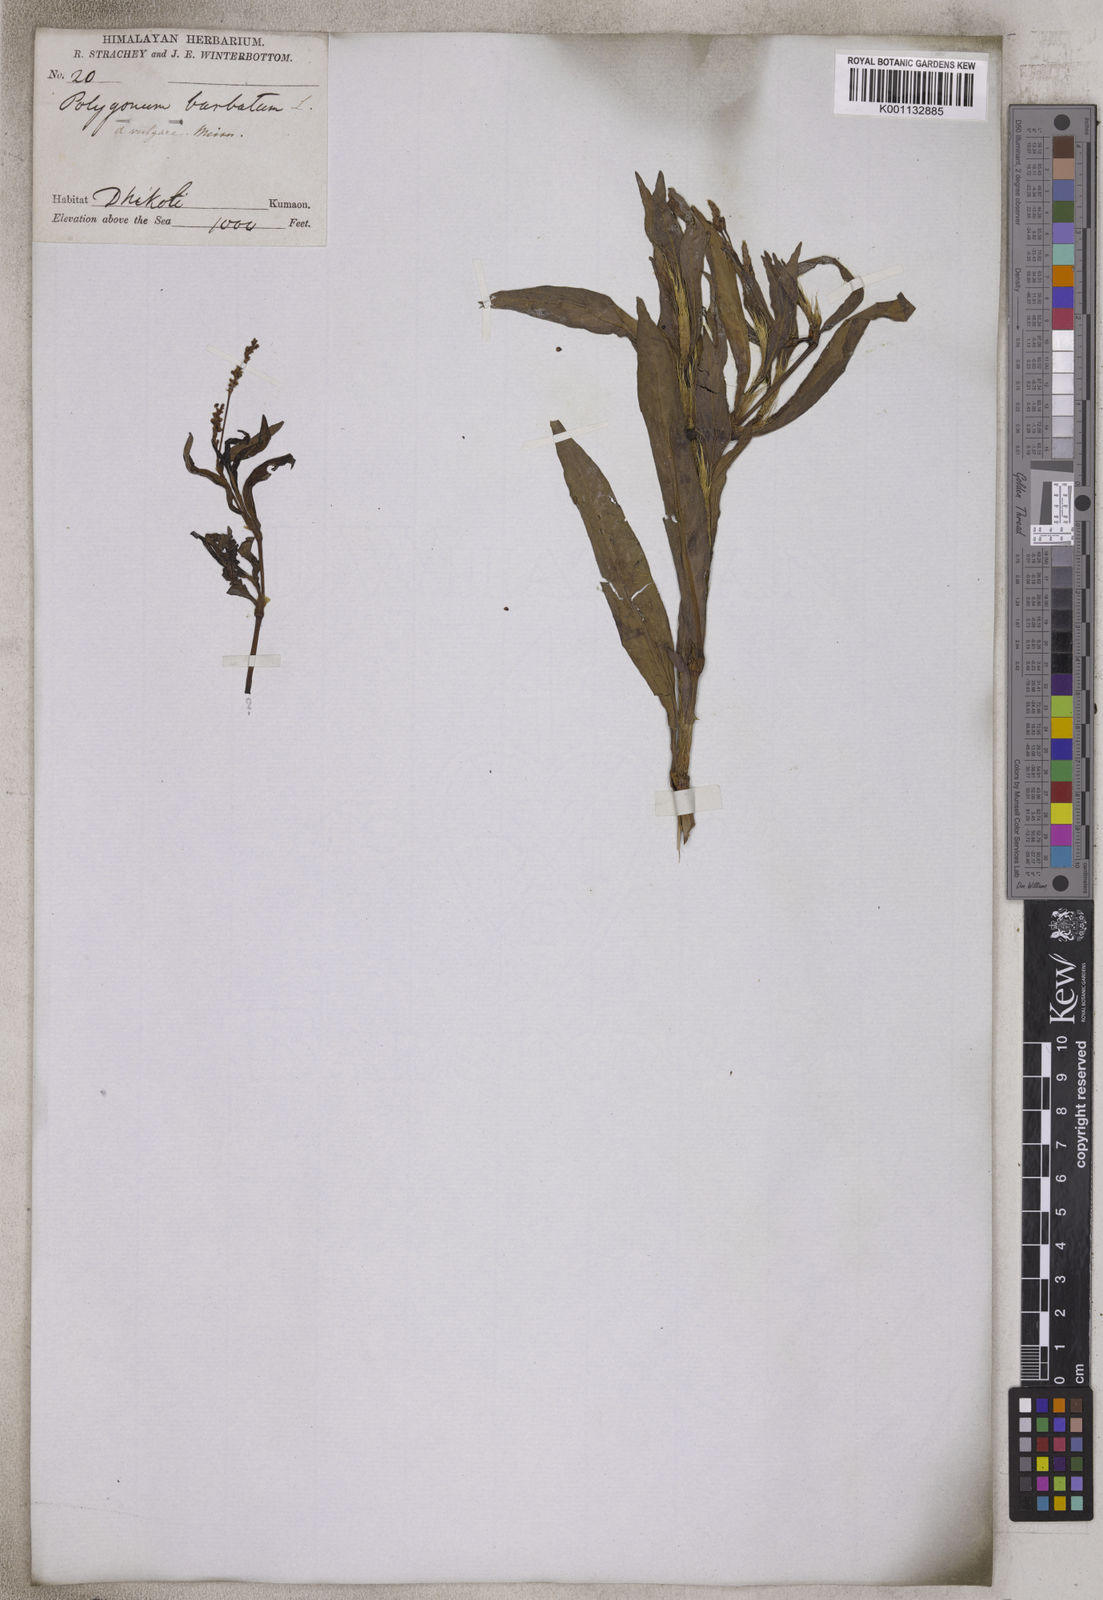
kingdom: Plantae
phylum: Tracheophyta
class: Magnoliopsida
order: Caryophyllales
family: Polygonaceae
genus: Persicaria
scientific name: Persicaria barbata
